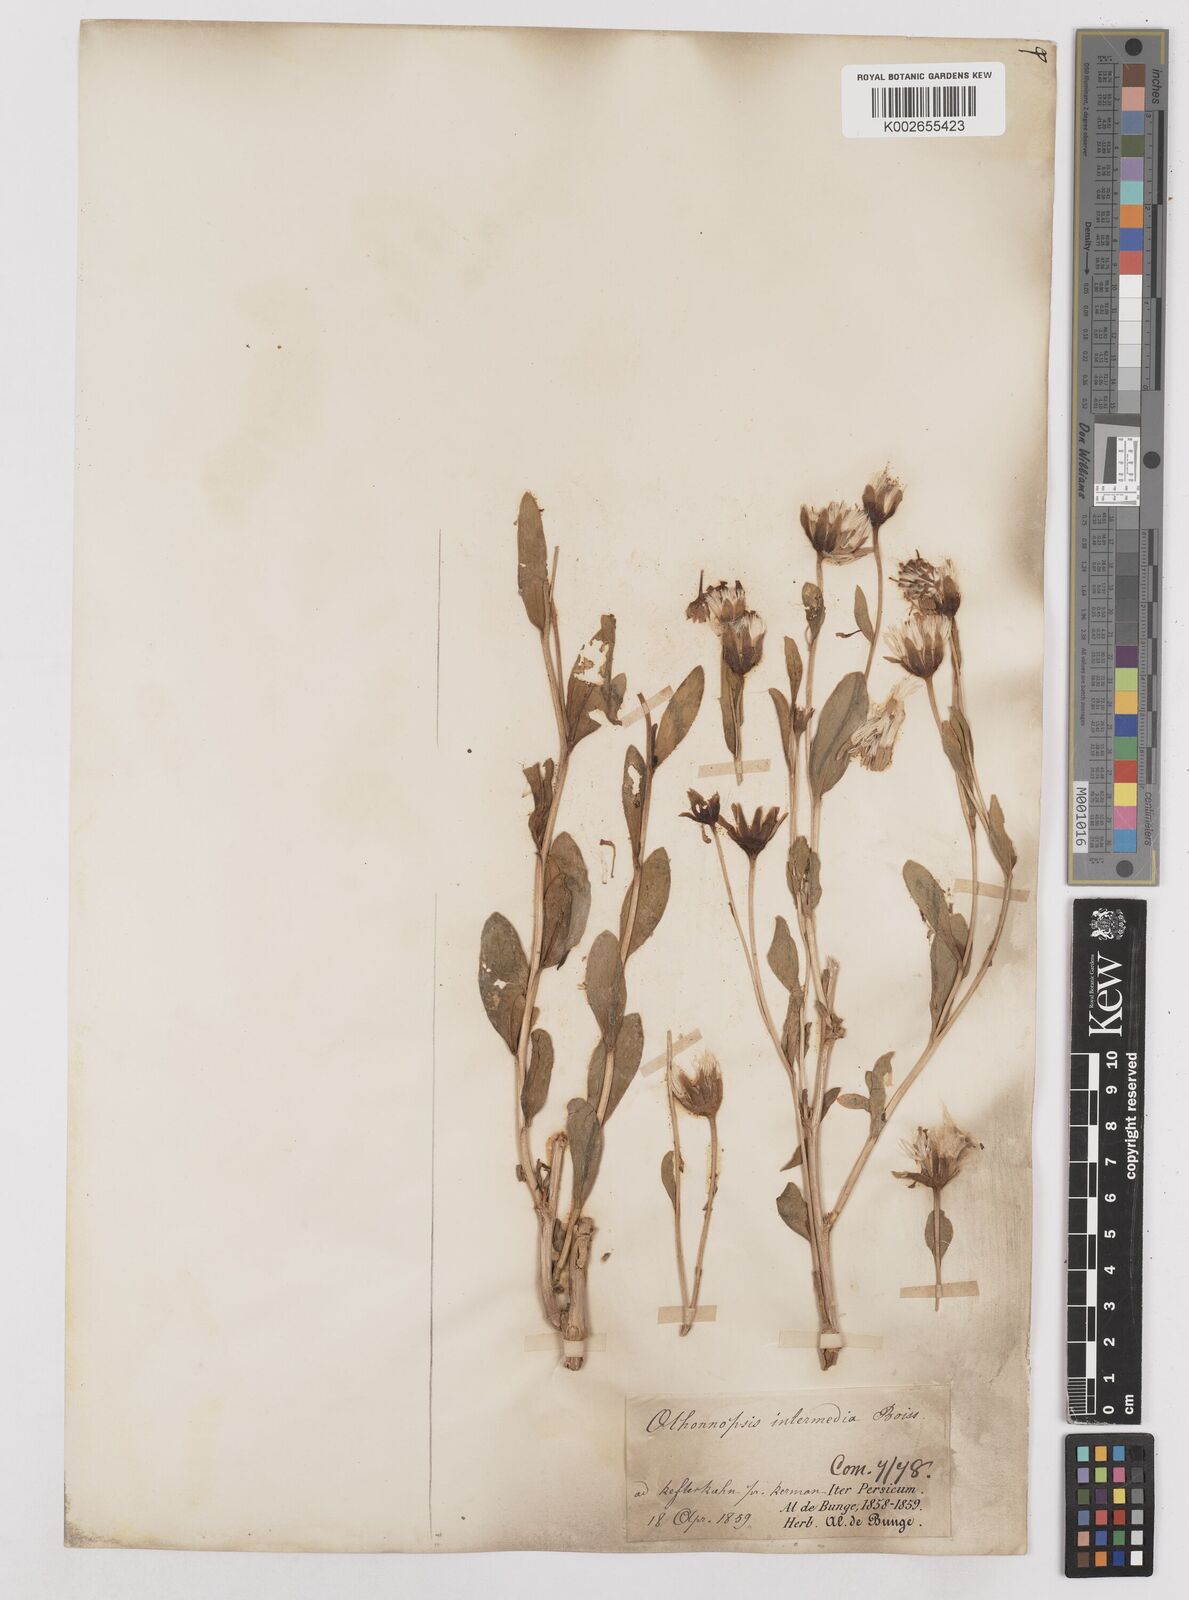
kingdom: Plantae
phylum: Tracheophyta
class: Magnoliopsida
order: Asterales
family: Asteraceae
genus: Hertia
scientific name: Hertia intermedia
